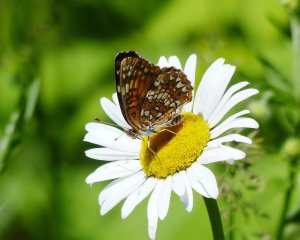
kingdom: Animalia
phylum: Arthropoda
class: Insecta
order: Lepidoptera
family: Nymphalidae
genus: Chlosyne
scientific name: Chlosyne harrisii
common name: Harris's Checkerspot
